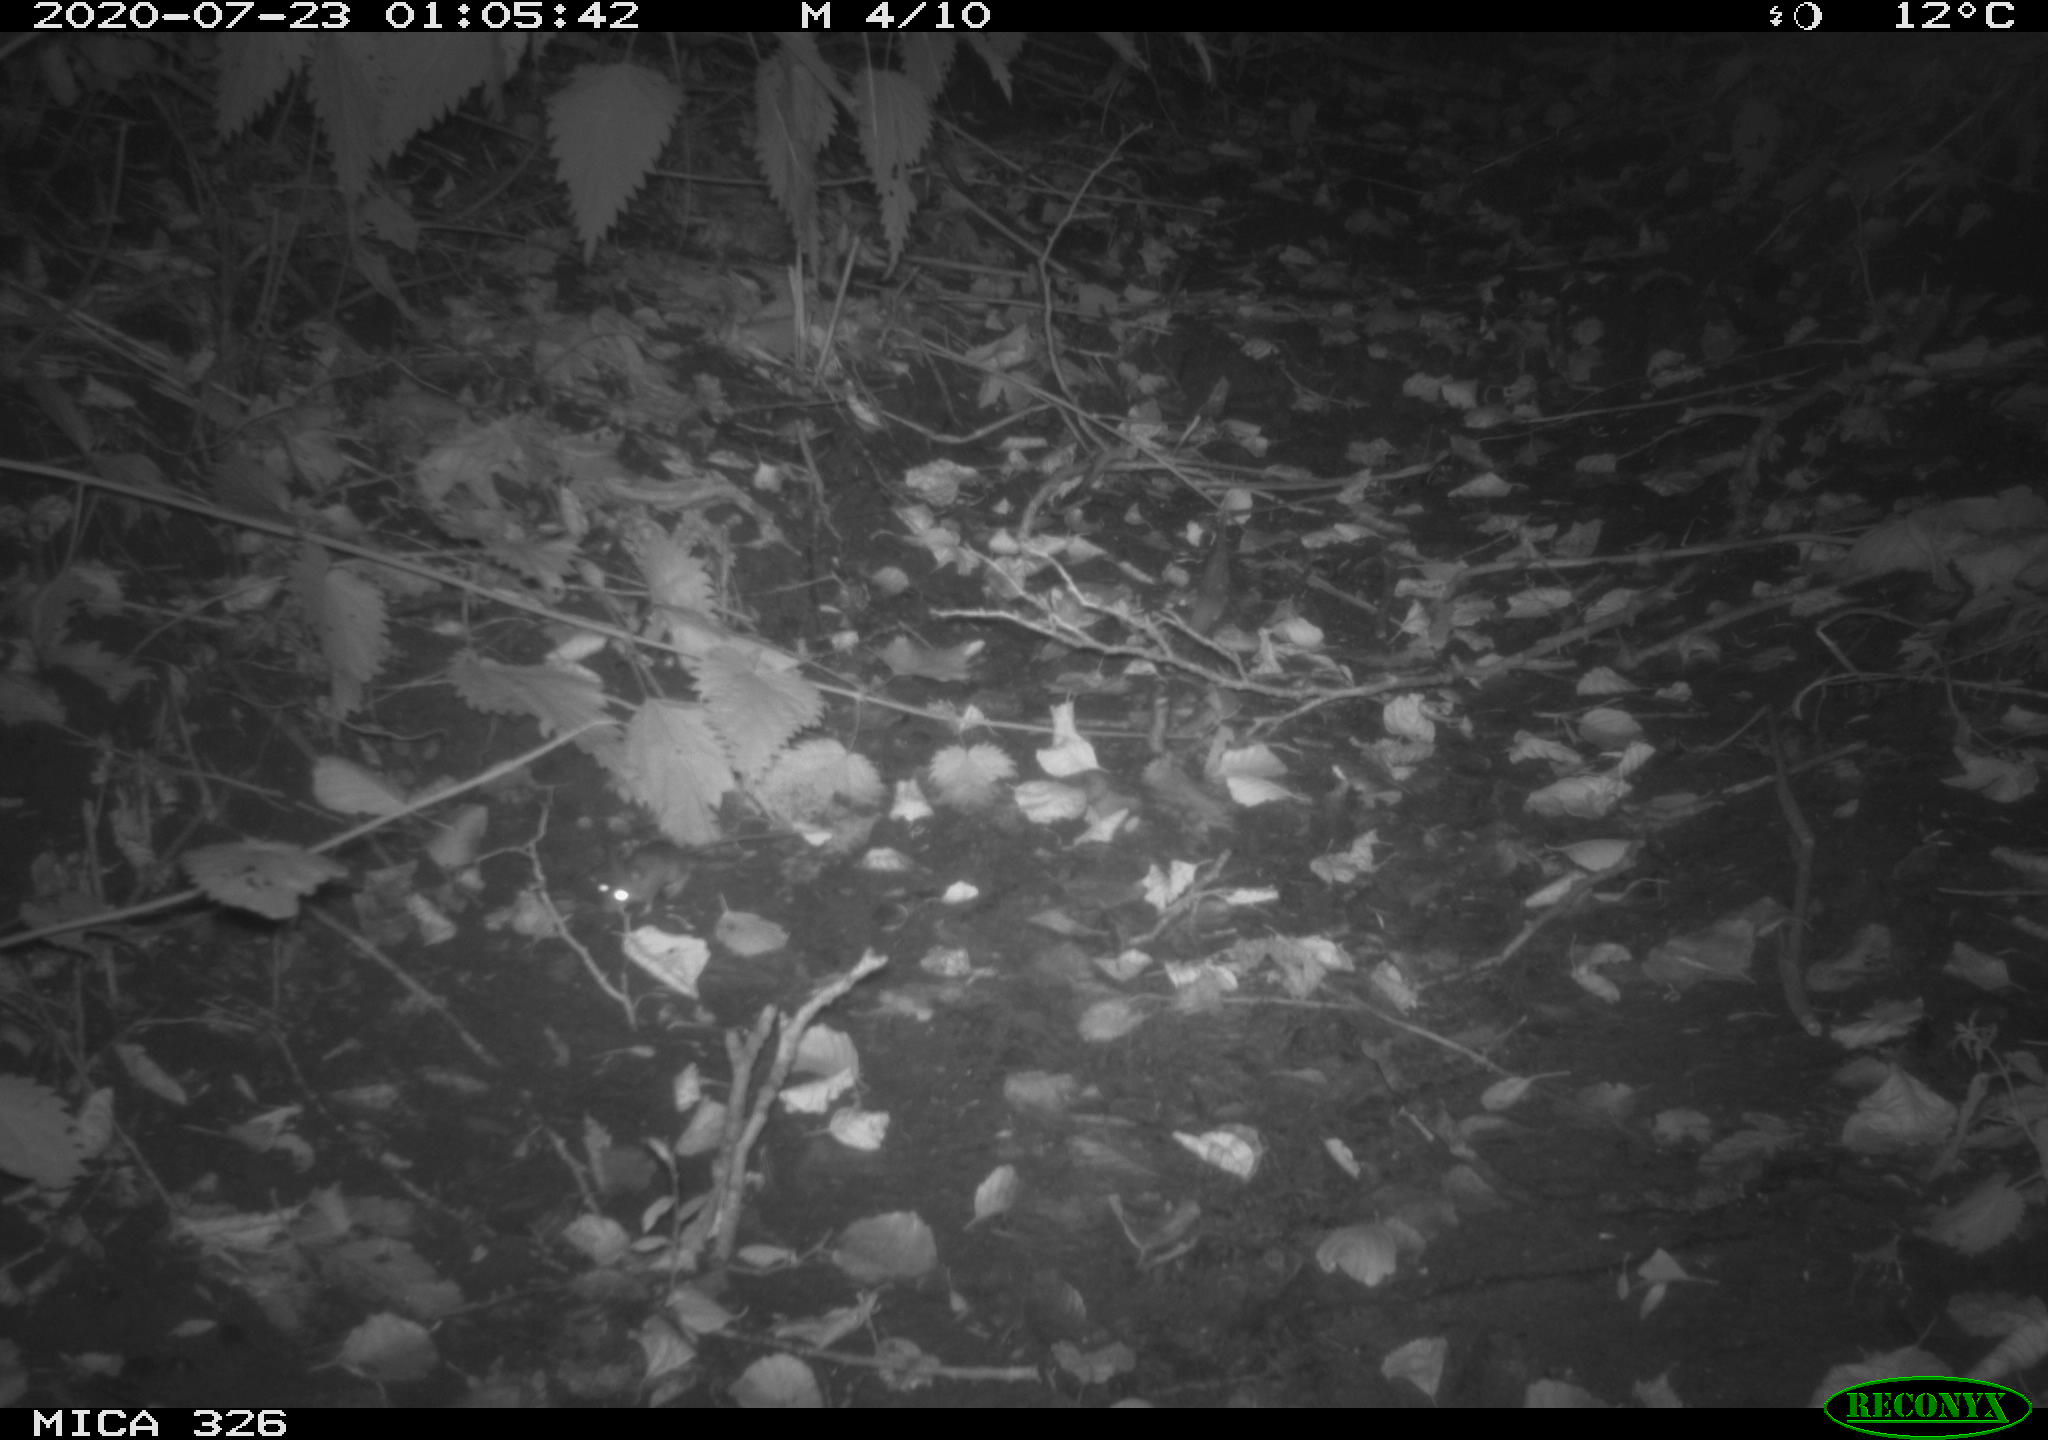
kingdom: Animalia
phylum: Chordata
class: Mammalia
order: Rodentia
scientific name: Rodentia
